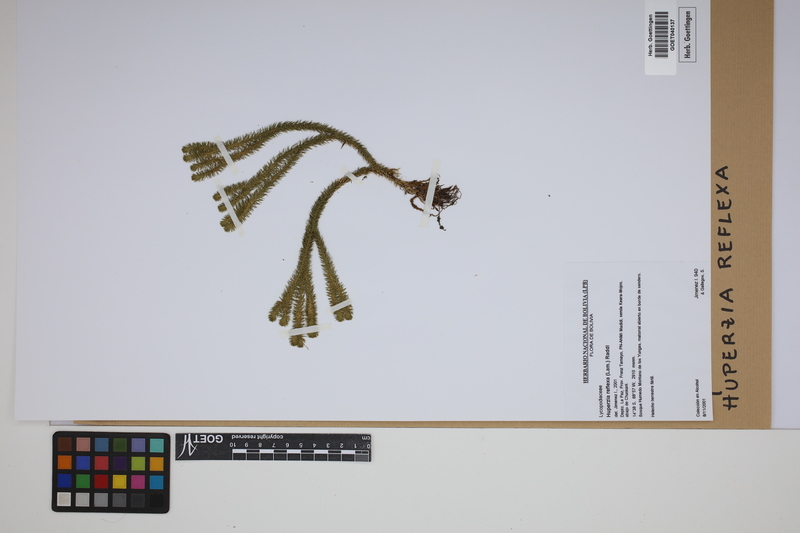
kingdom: Plantae
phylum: Tracheophyta
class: Lycopodiopsida
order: Lycopodiales
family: Lycopodiaceae
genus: Phlegmariurus
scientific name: Phlegmariurus reflexus
